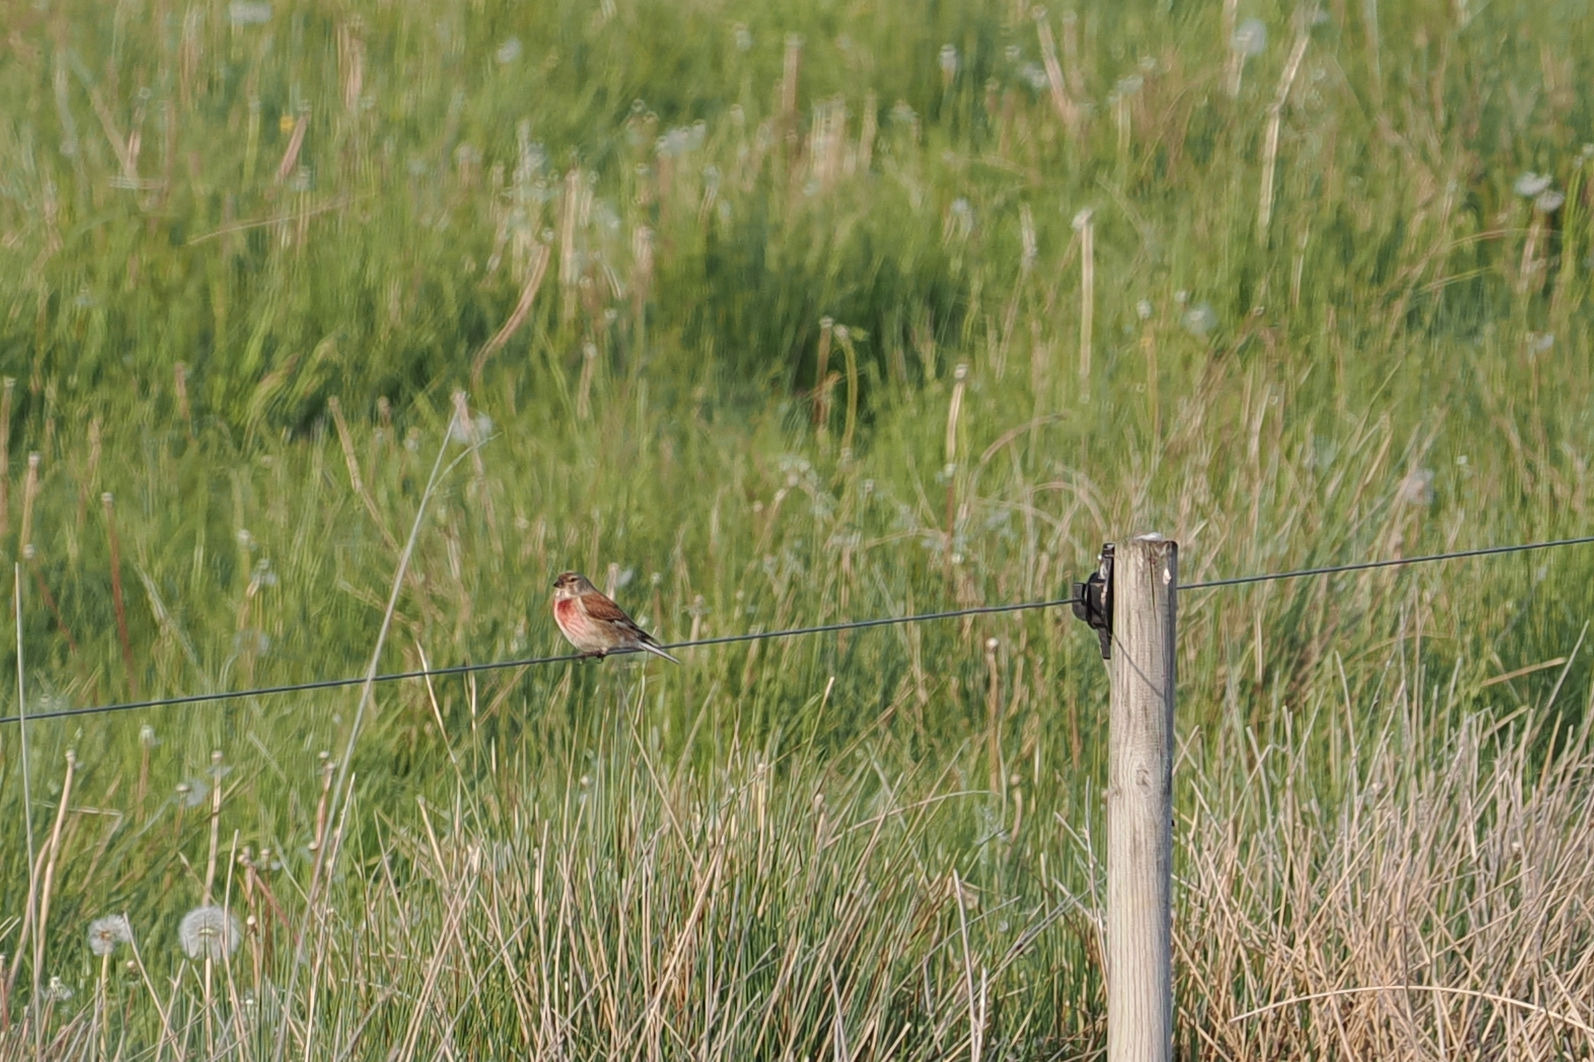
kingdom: Animalia
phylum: Chordata
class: Aves
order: Passeriformes
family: Fringillidae
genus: Linaria
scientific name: Linaria cannabina
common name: Tornirisk
